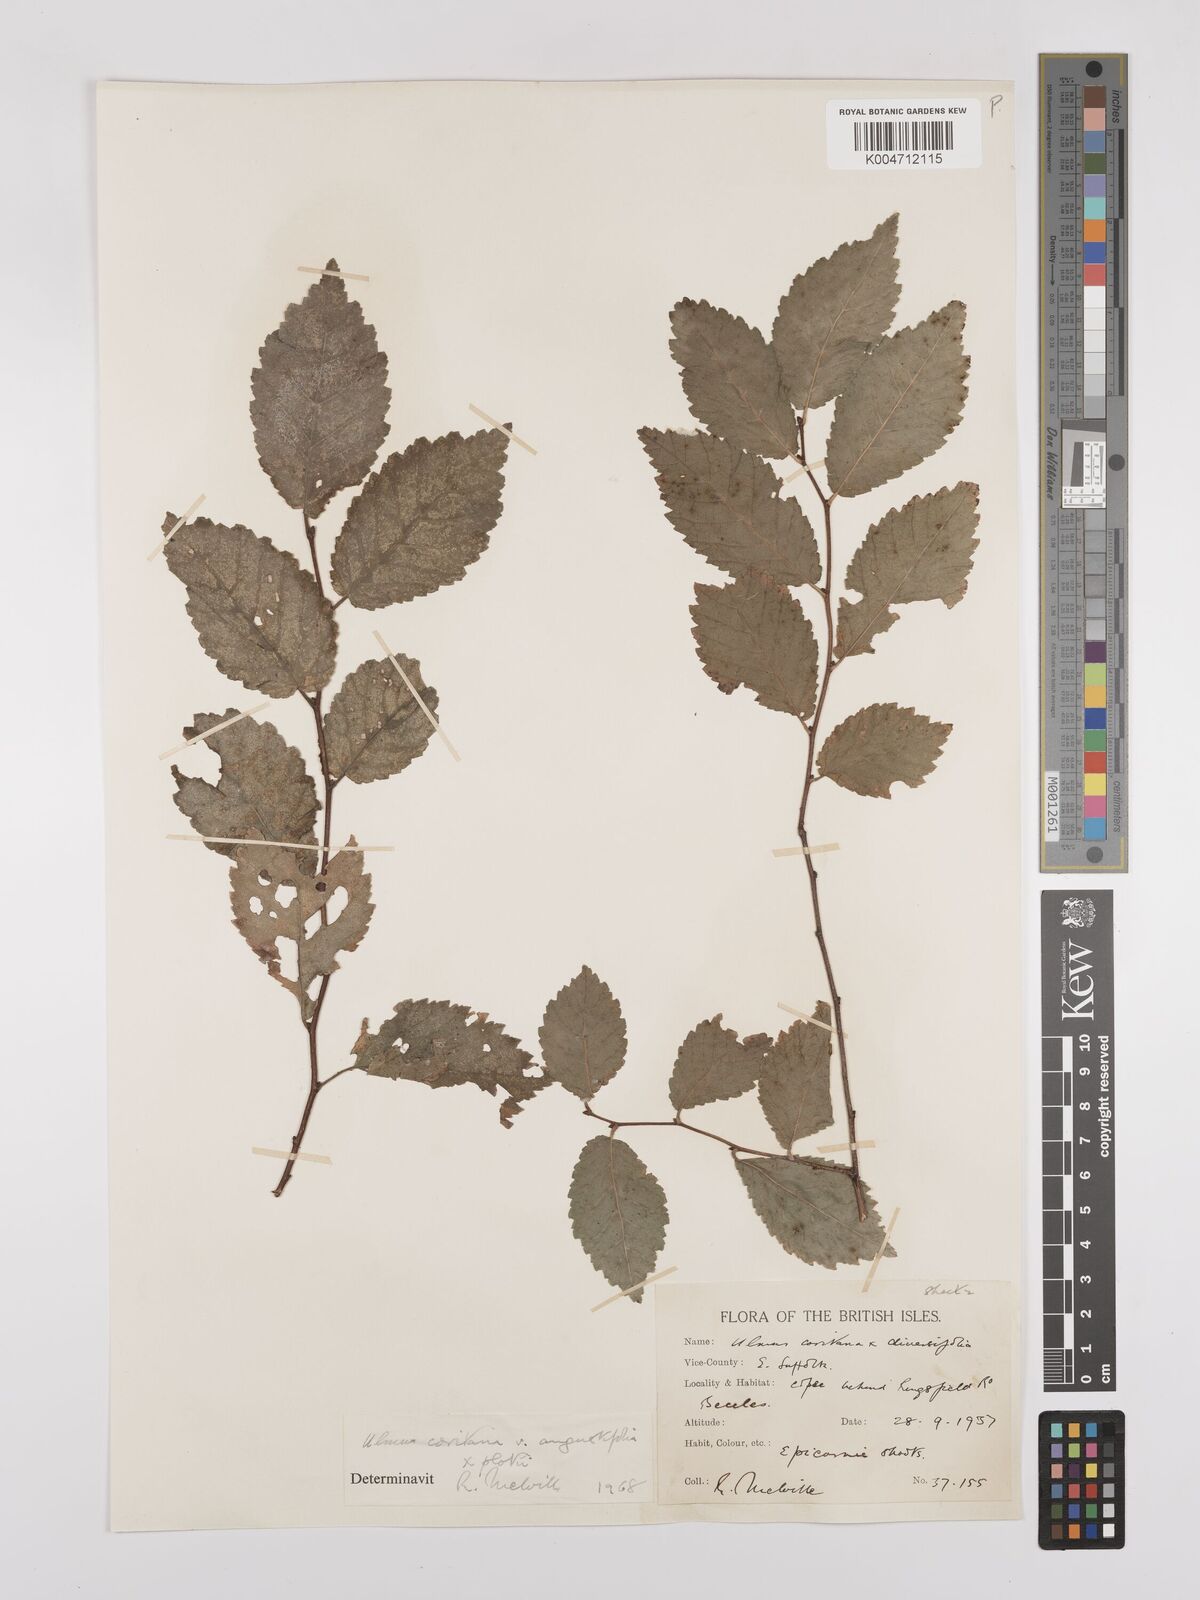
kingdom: Plantae
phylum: Tracheophyta
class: Magnoliopsida
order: Rosales
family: Ulmaceae
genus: Ulmus
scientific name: Ulmus minor
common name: Small-leaved elm
